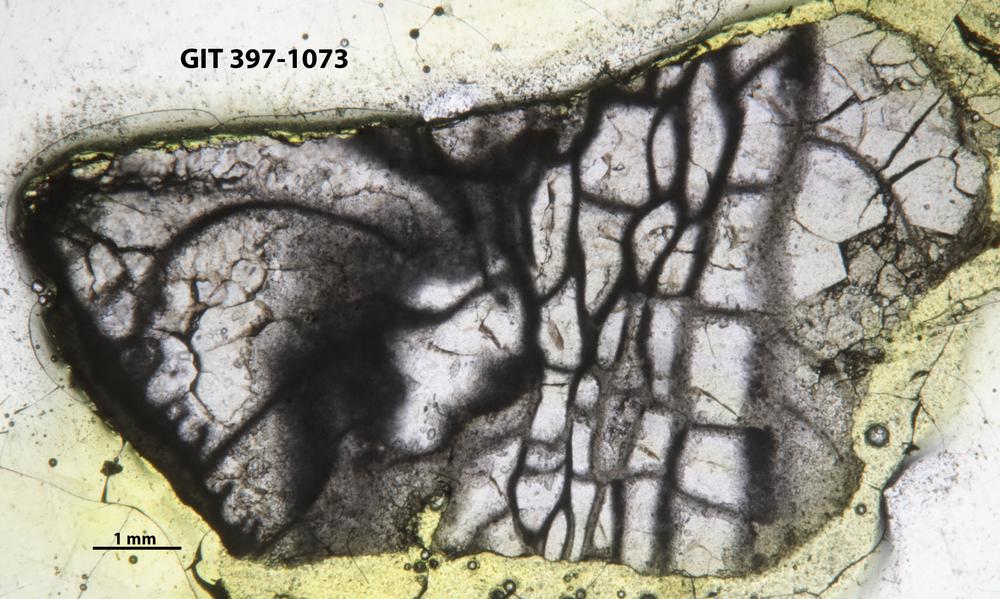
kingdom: Animalia
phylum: Cnidaria
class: Anthozoa
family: Streptelasmatidae
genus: Streptelasma
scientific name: Streptelasma
